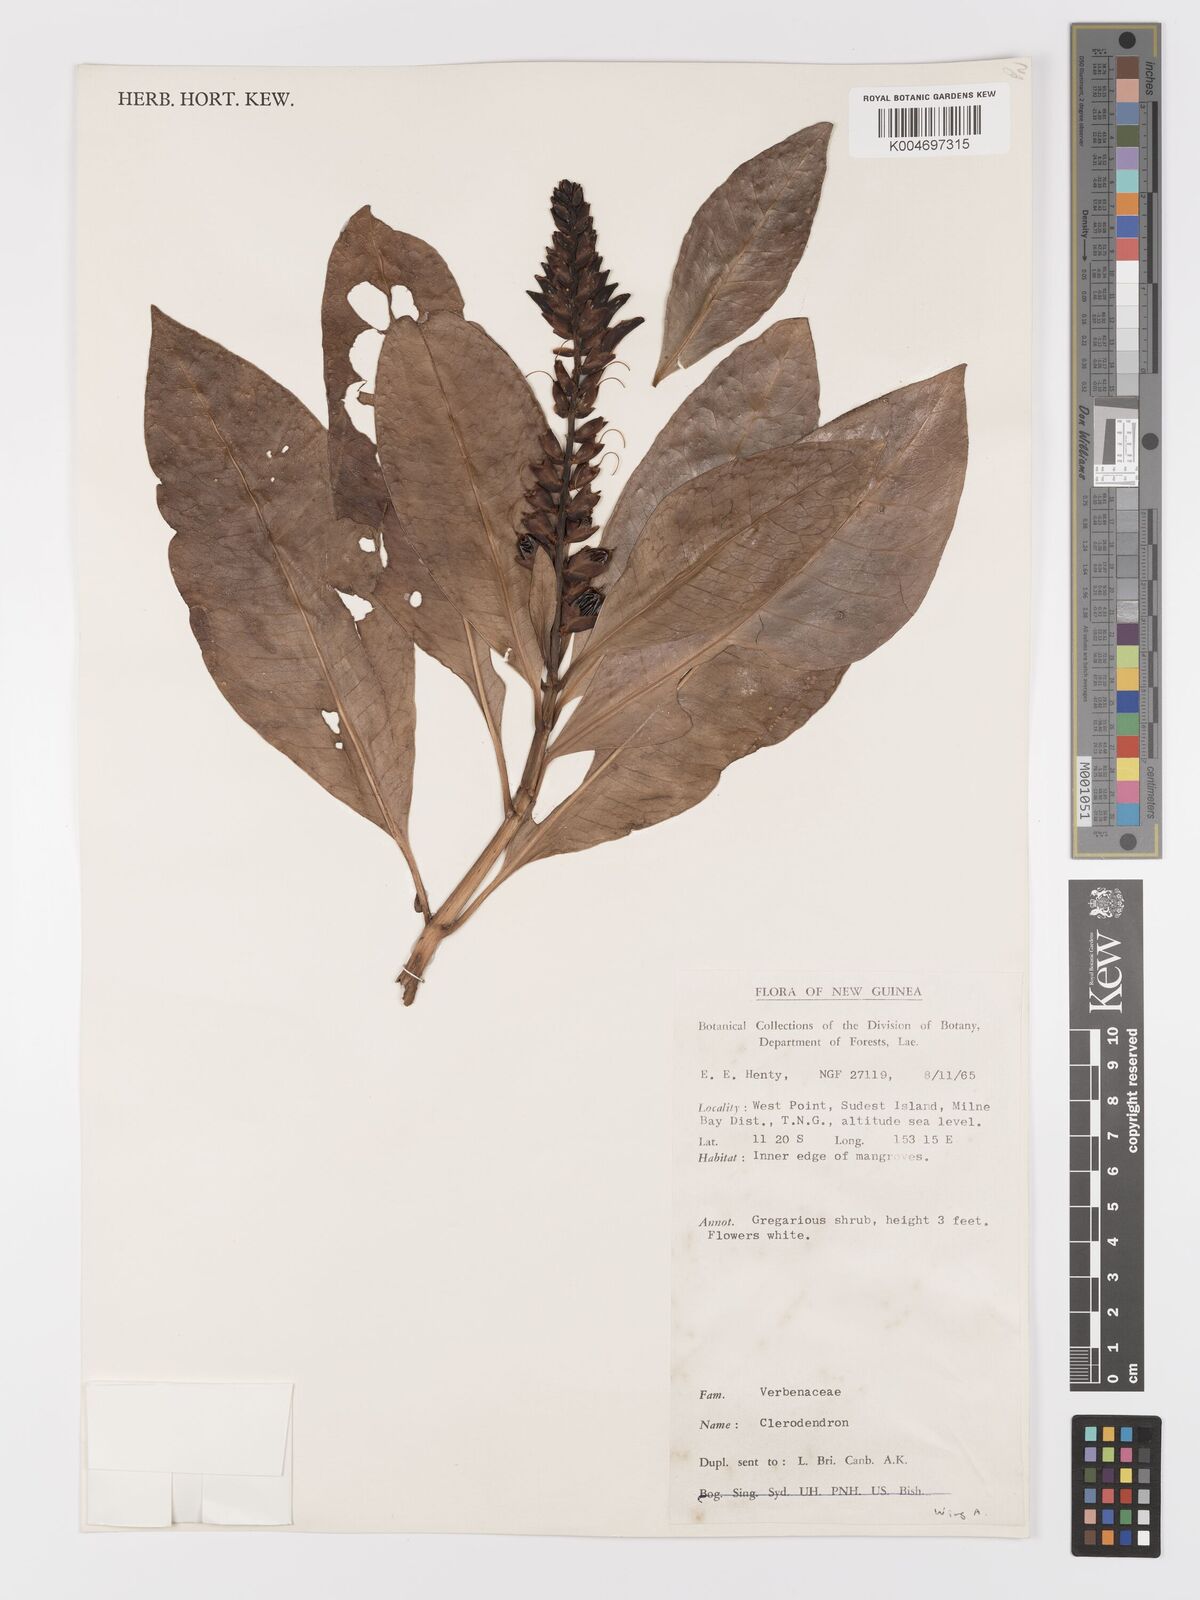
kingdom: Plantae
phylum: Tracheophyta
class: Magnoliopsida
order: Lamiales
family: Acanthaceae
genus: Acanthus
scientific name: Acanthus
